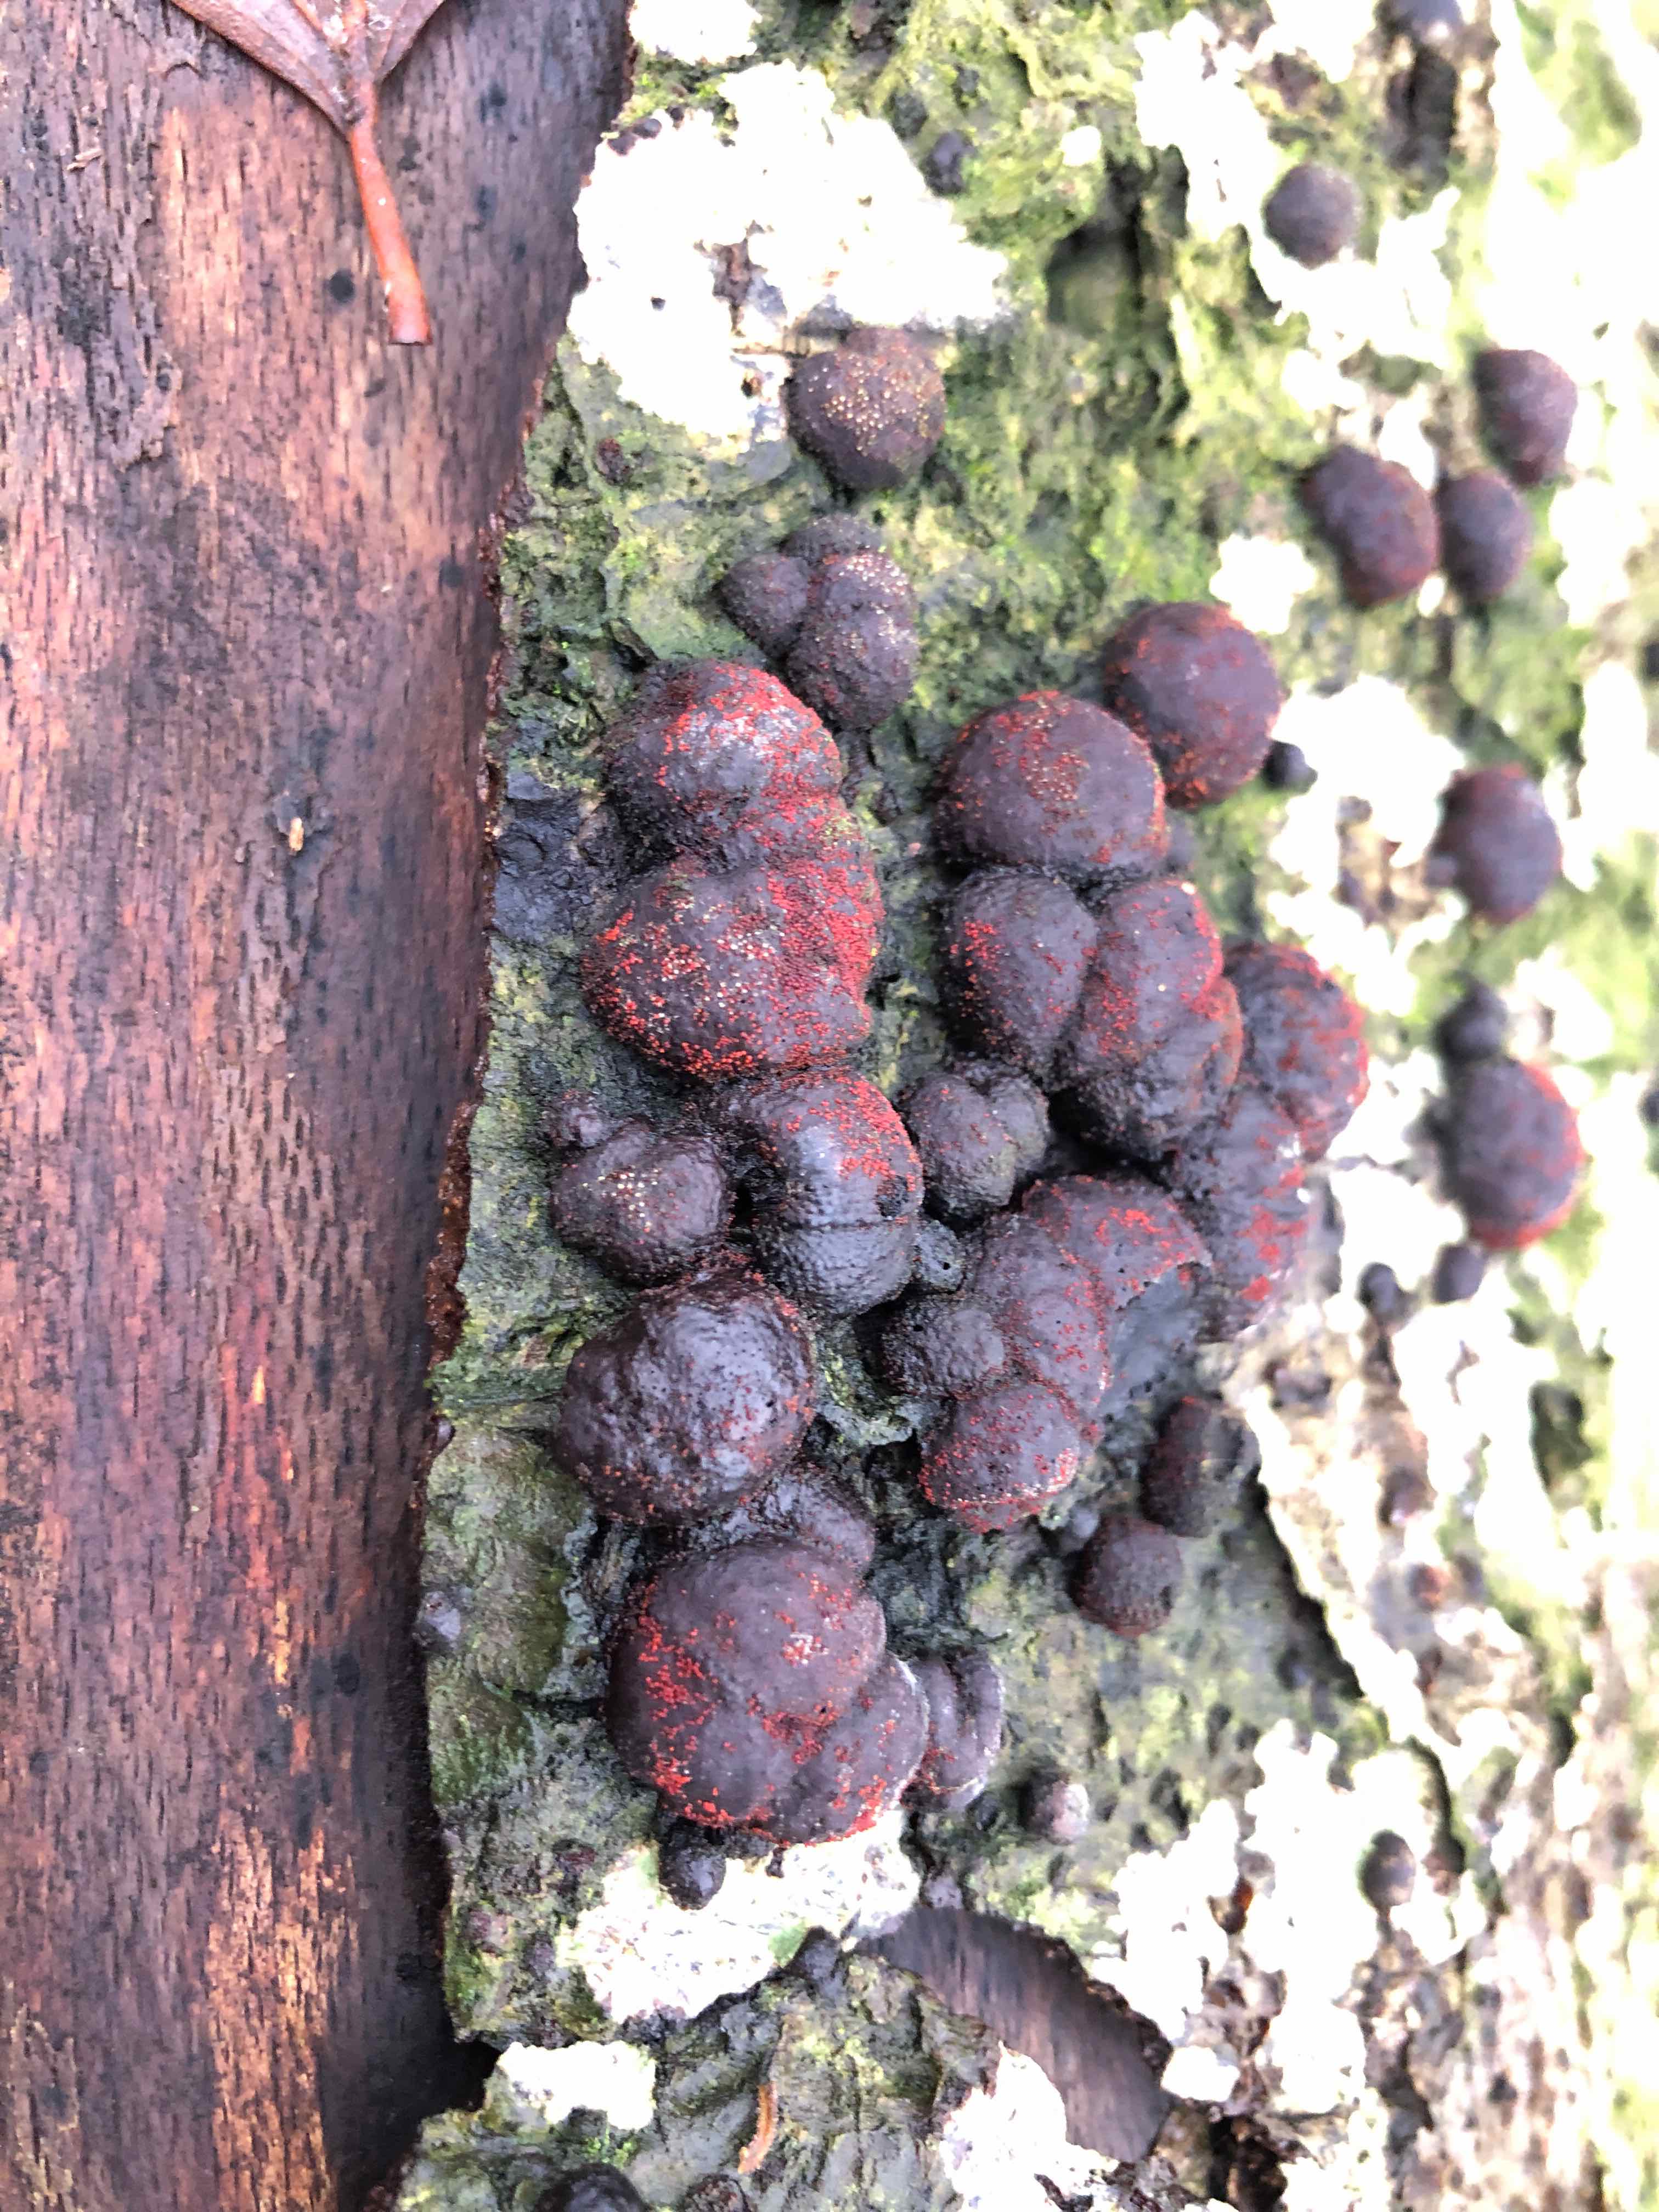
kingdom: Fungi
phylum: Ascomycota
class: Sordariomycetes
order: Hypocreales
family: Nectriaceae
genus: Cosmospora
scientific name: Cosmospora arxii
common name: kuljordbær-cinnobersvamp
